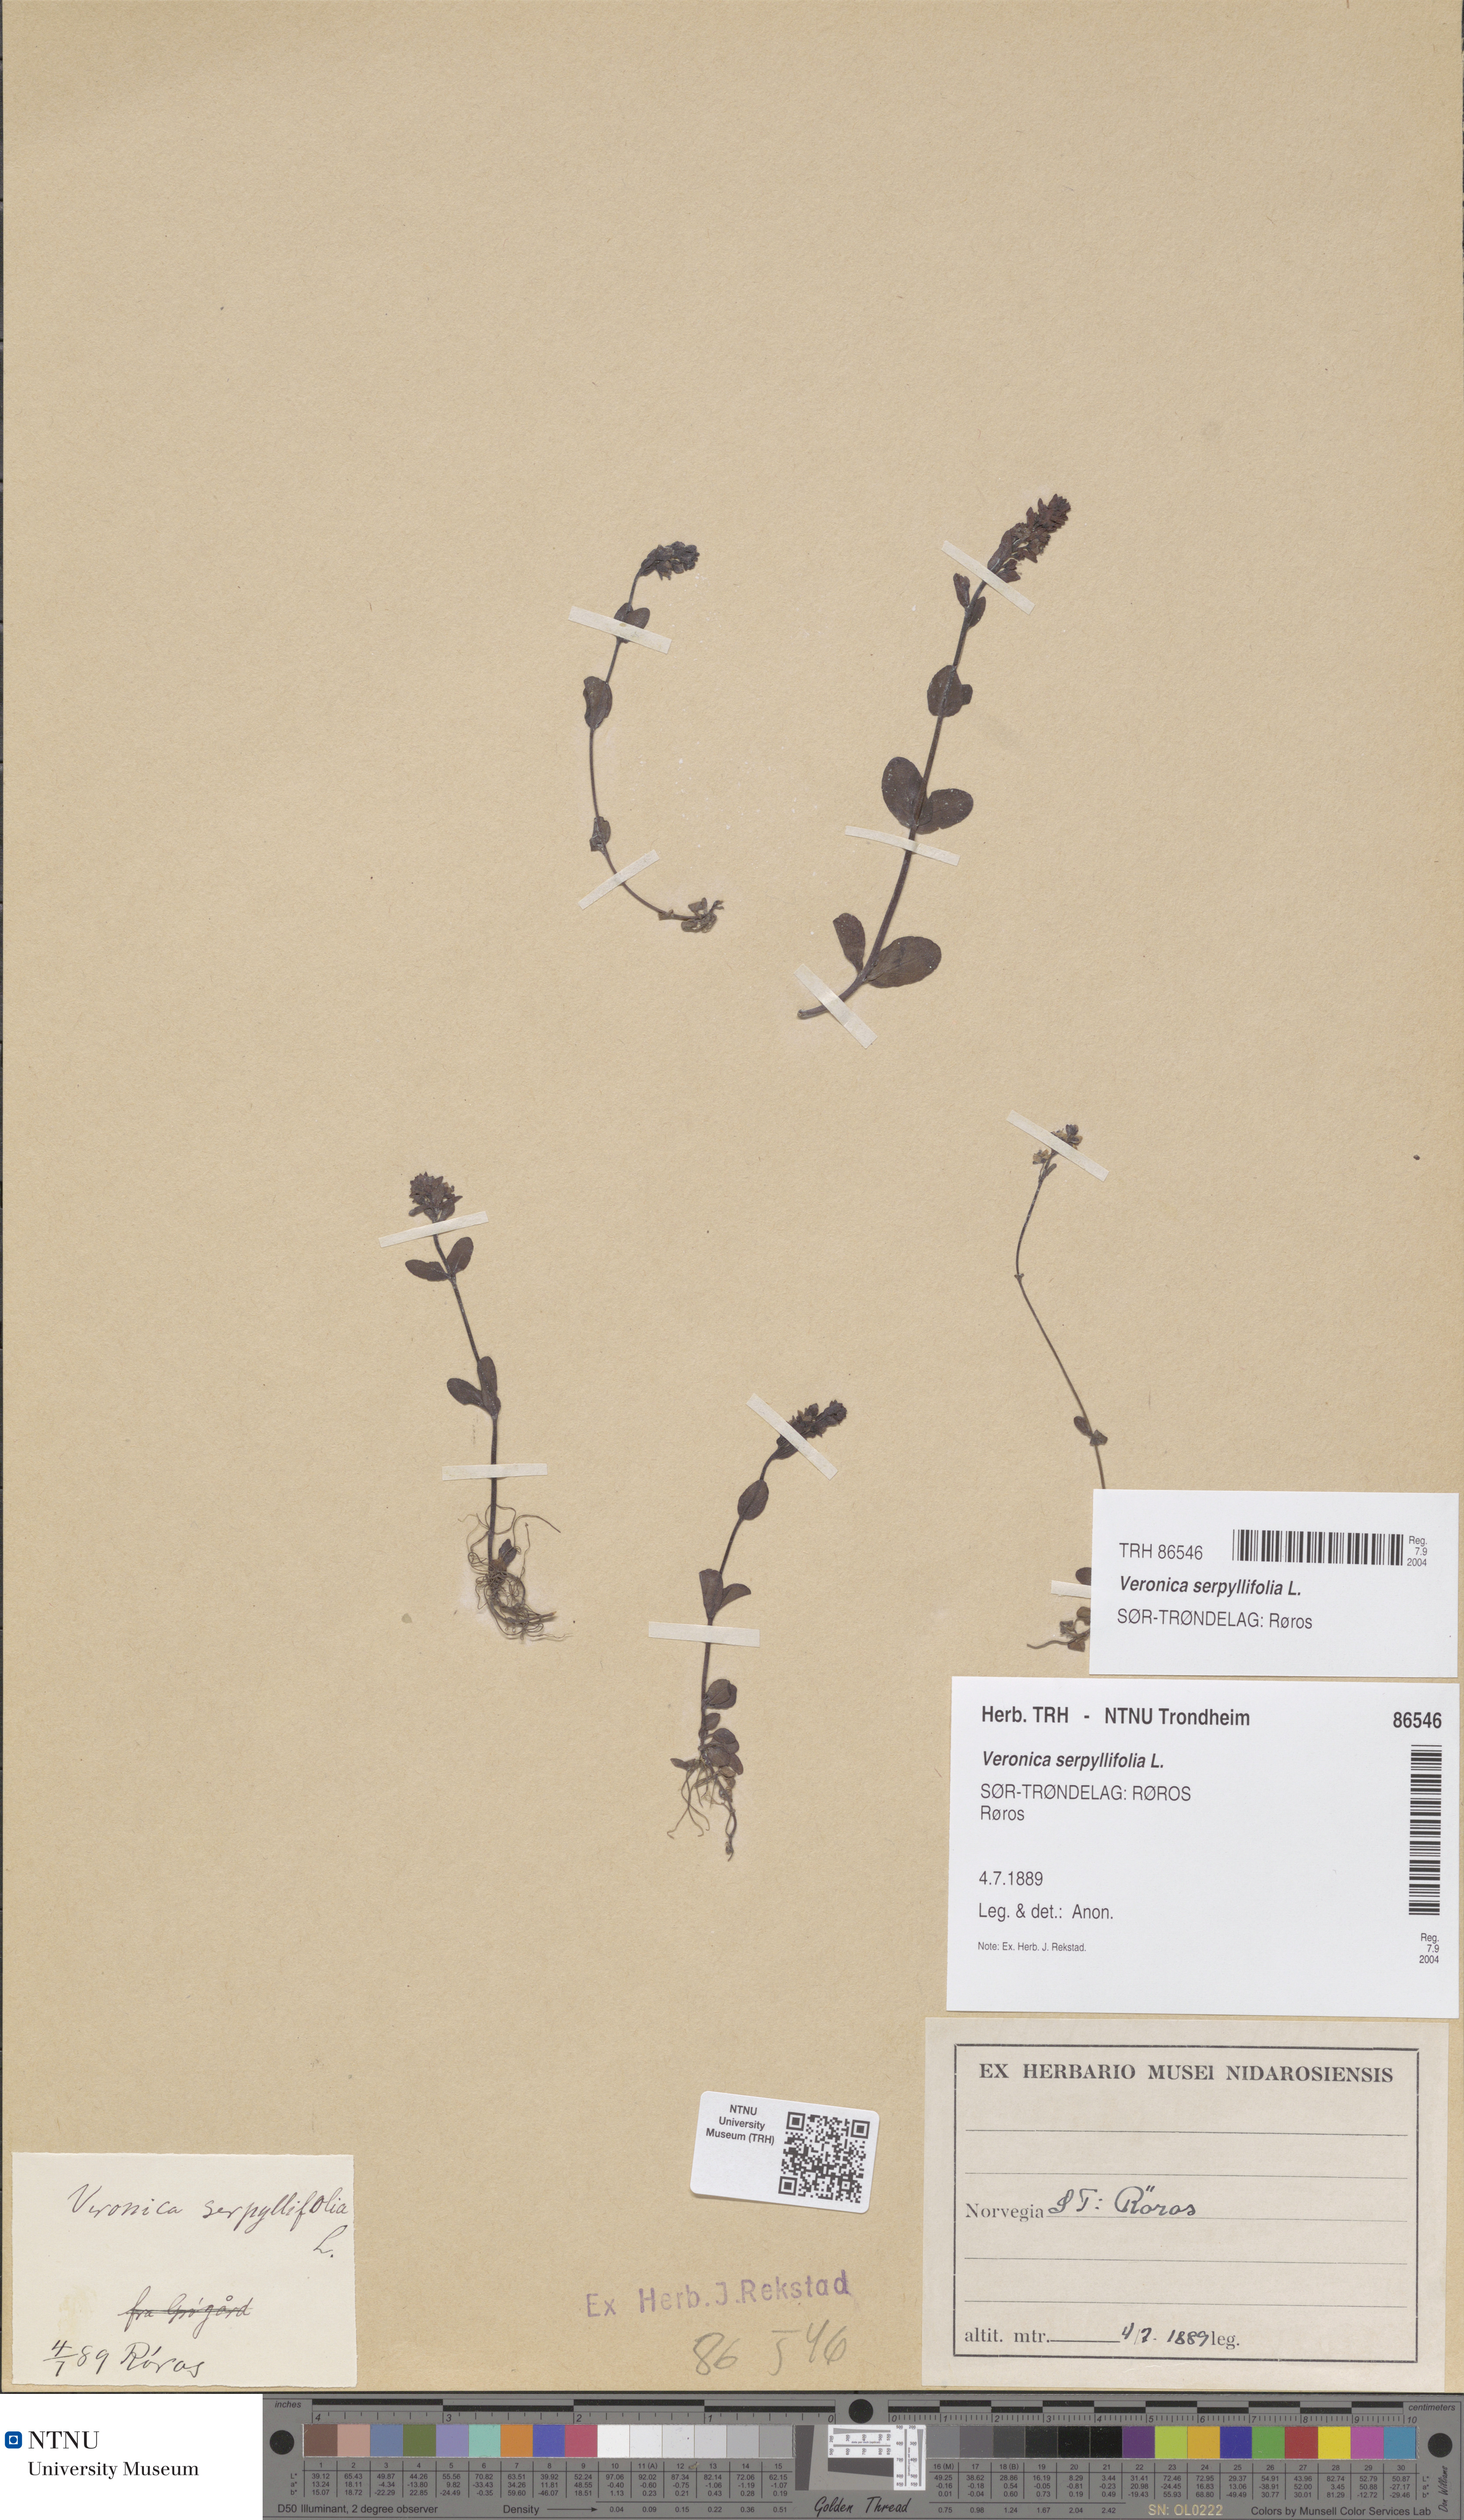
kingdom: Plantae
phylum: Tracheophyta
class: Magnoliopsida
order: Lamiales
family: Plantaginaceae
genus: Veronica
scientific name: Veronica serpyllifolia
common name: Thyme-leaved speedwell
